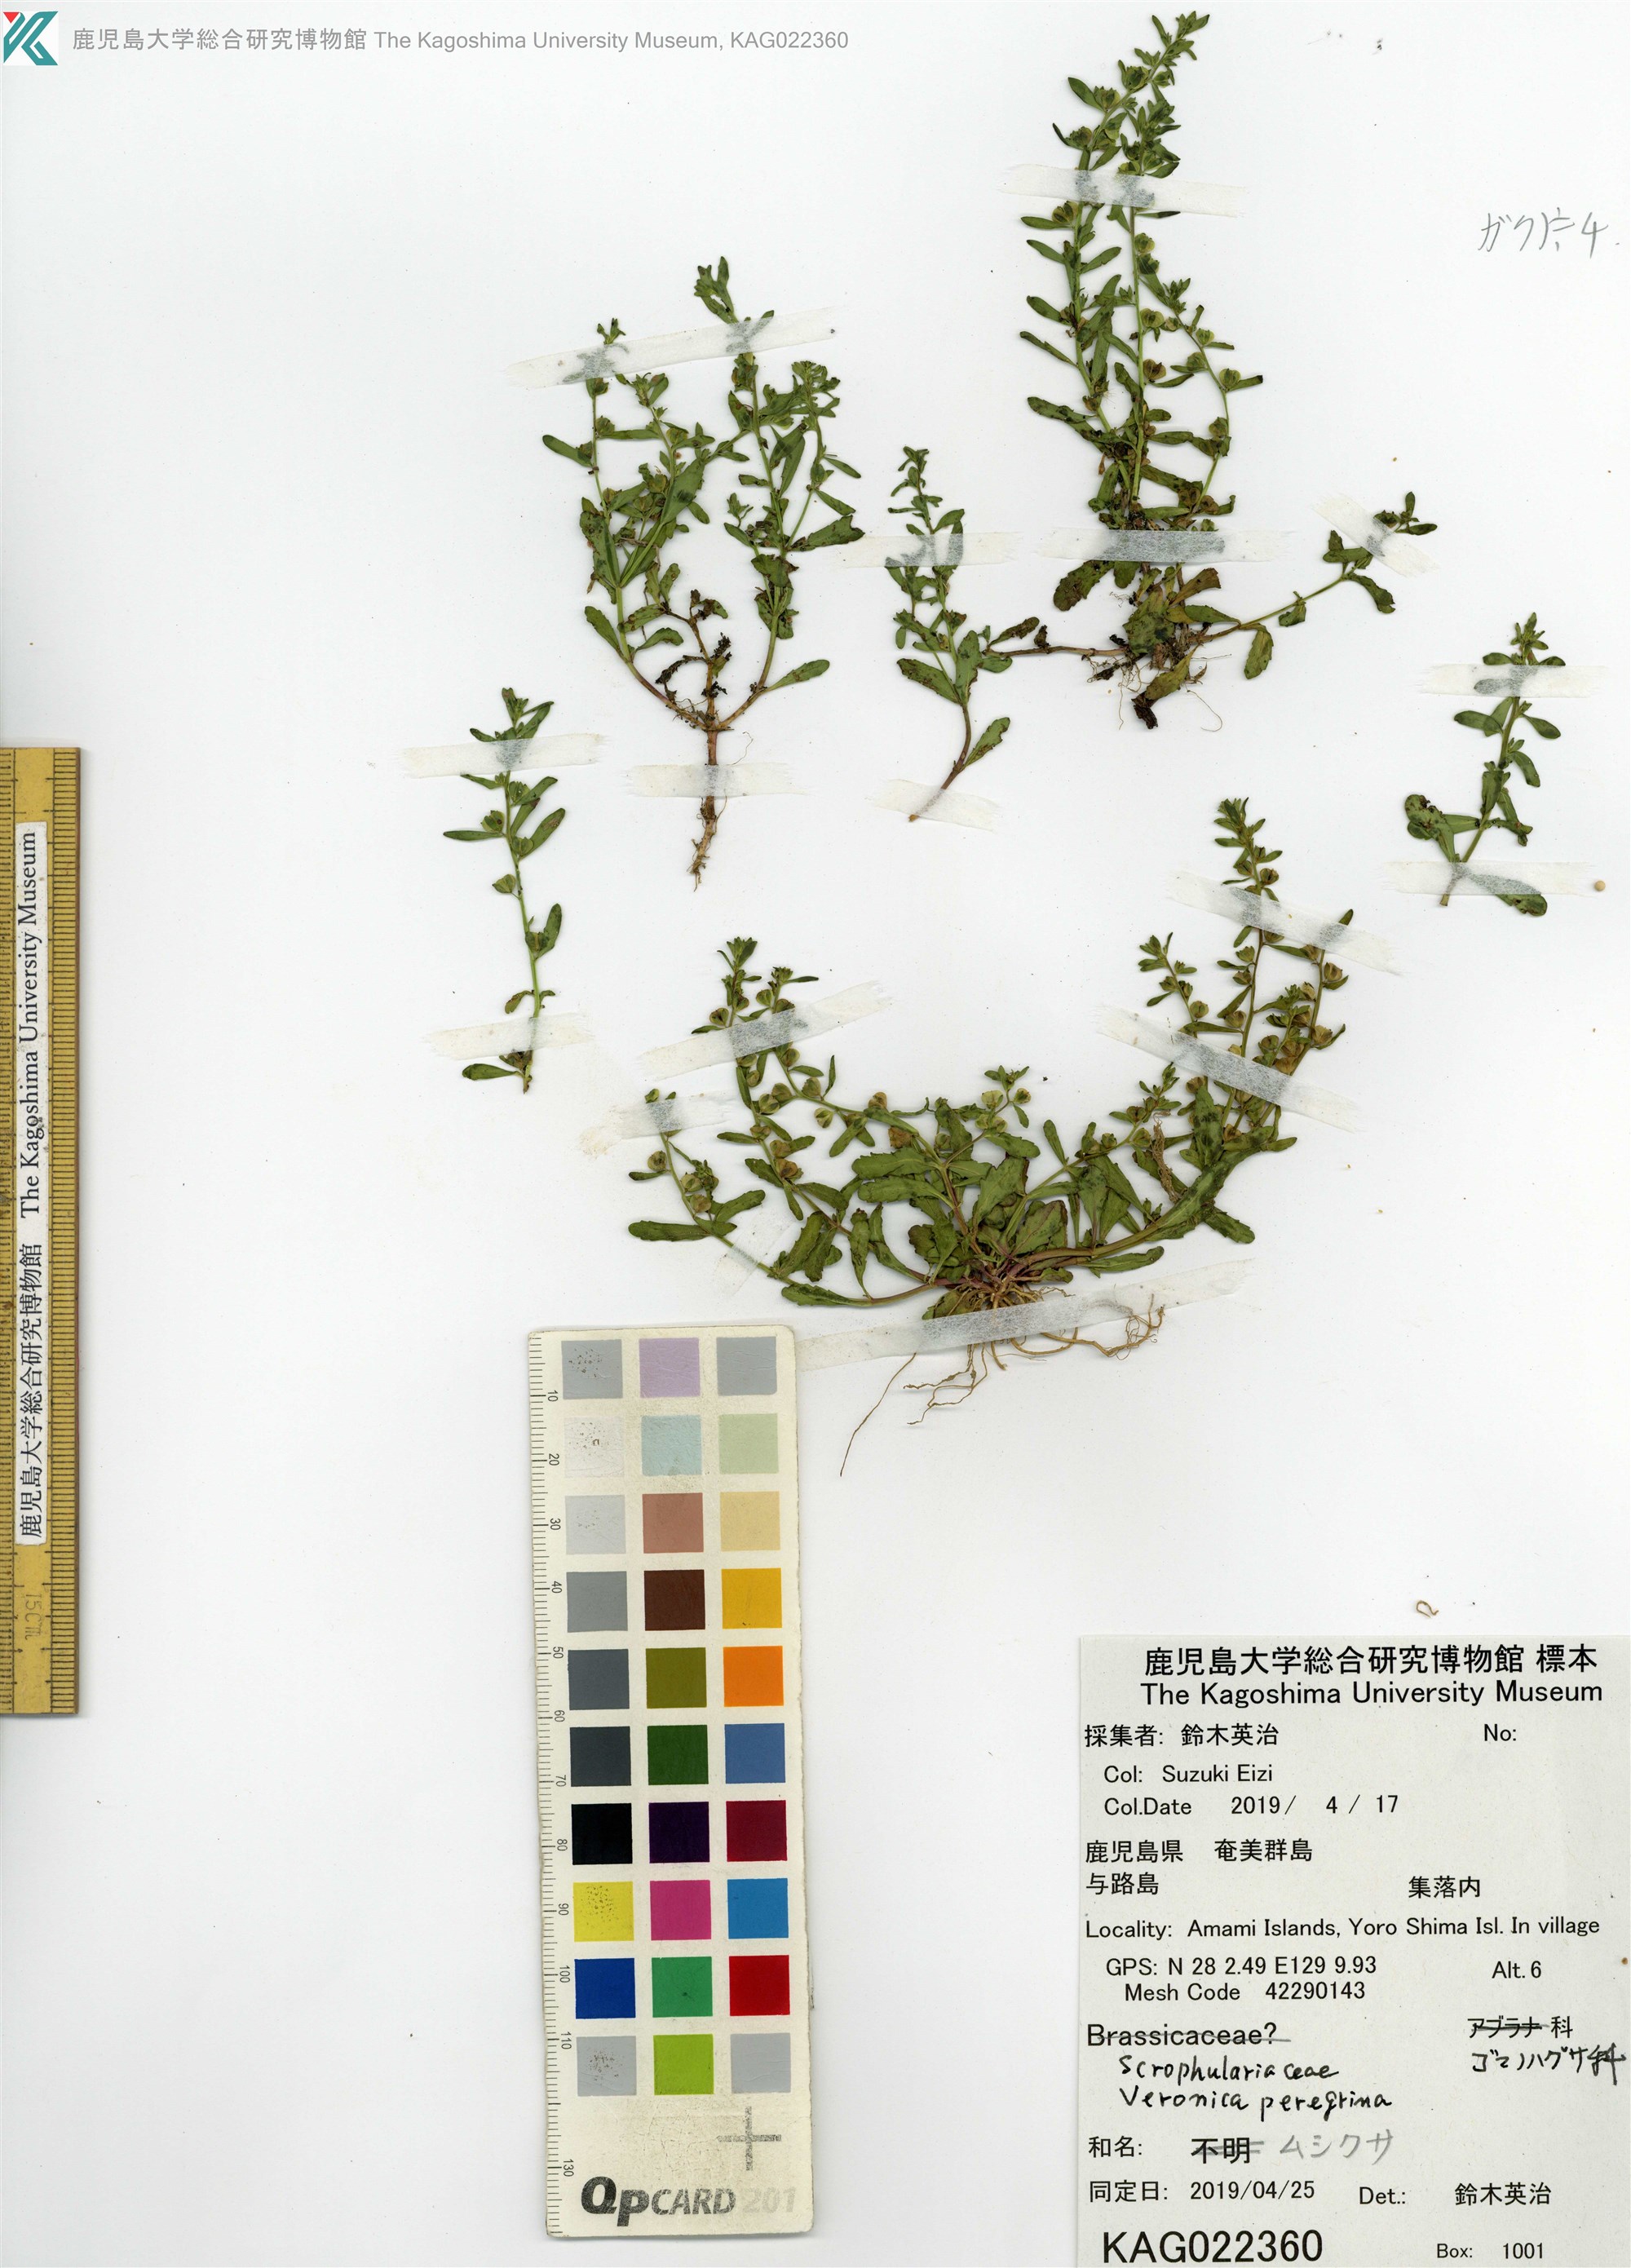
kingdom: Plantae
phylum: Tracheophyta
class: Magnoliopsida
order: Lamiales
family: Plantaginaceae
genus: Veronica
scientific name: Veronica peregrina
